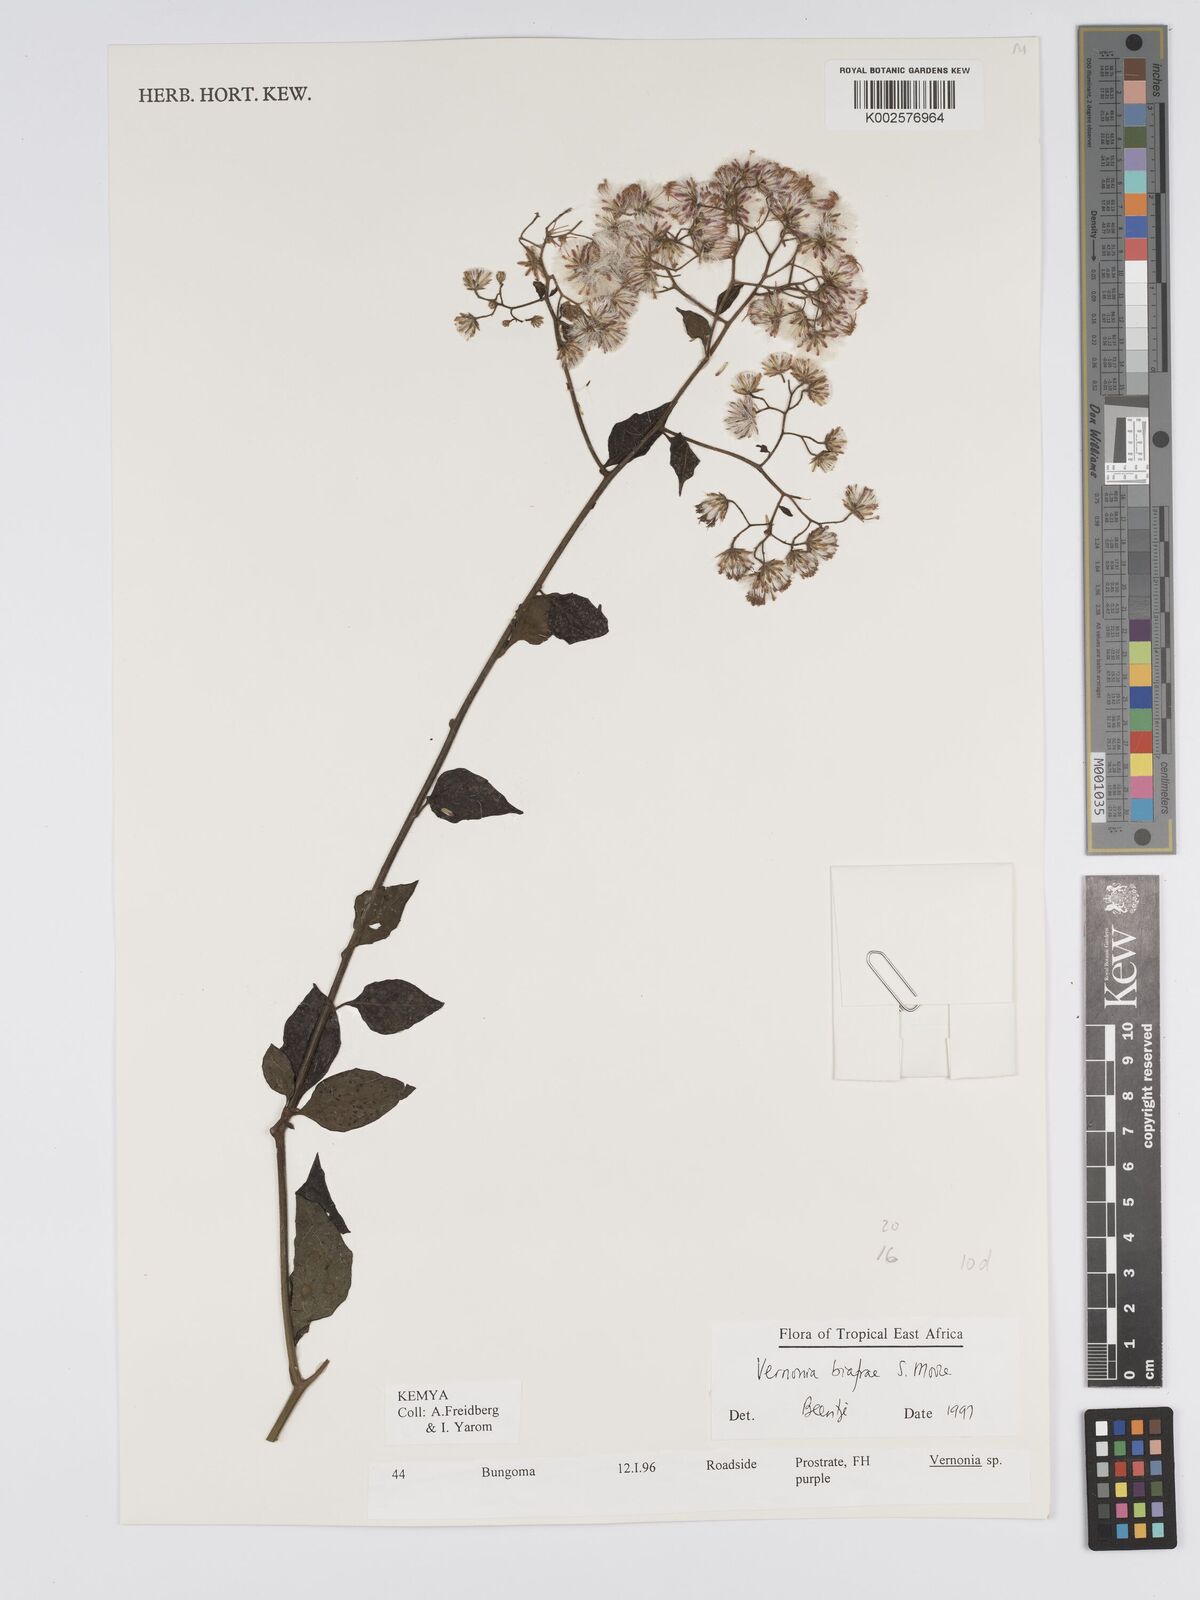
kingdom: Plantae
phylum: Tracheophyta
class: Magnoliopsida
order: Asterales
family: Asteraceae
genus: Distephanus
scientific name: Distephanus biafrae
